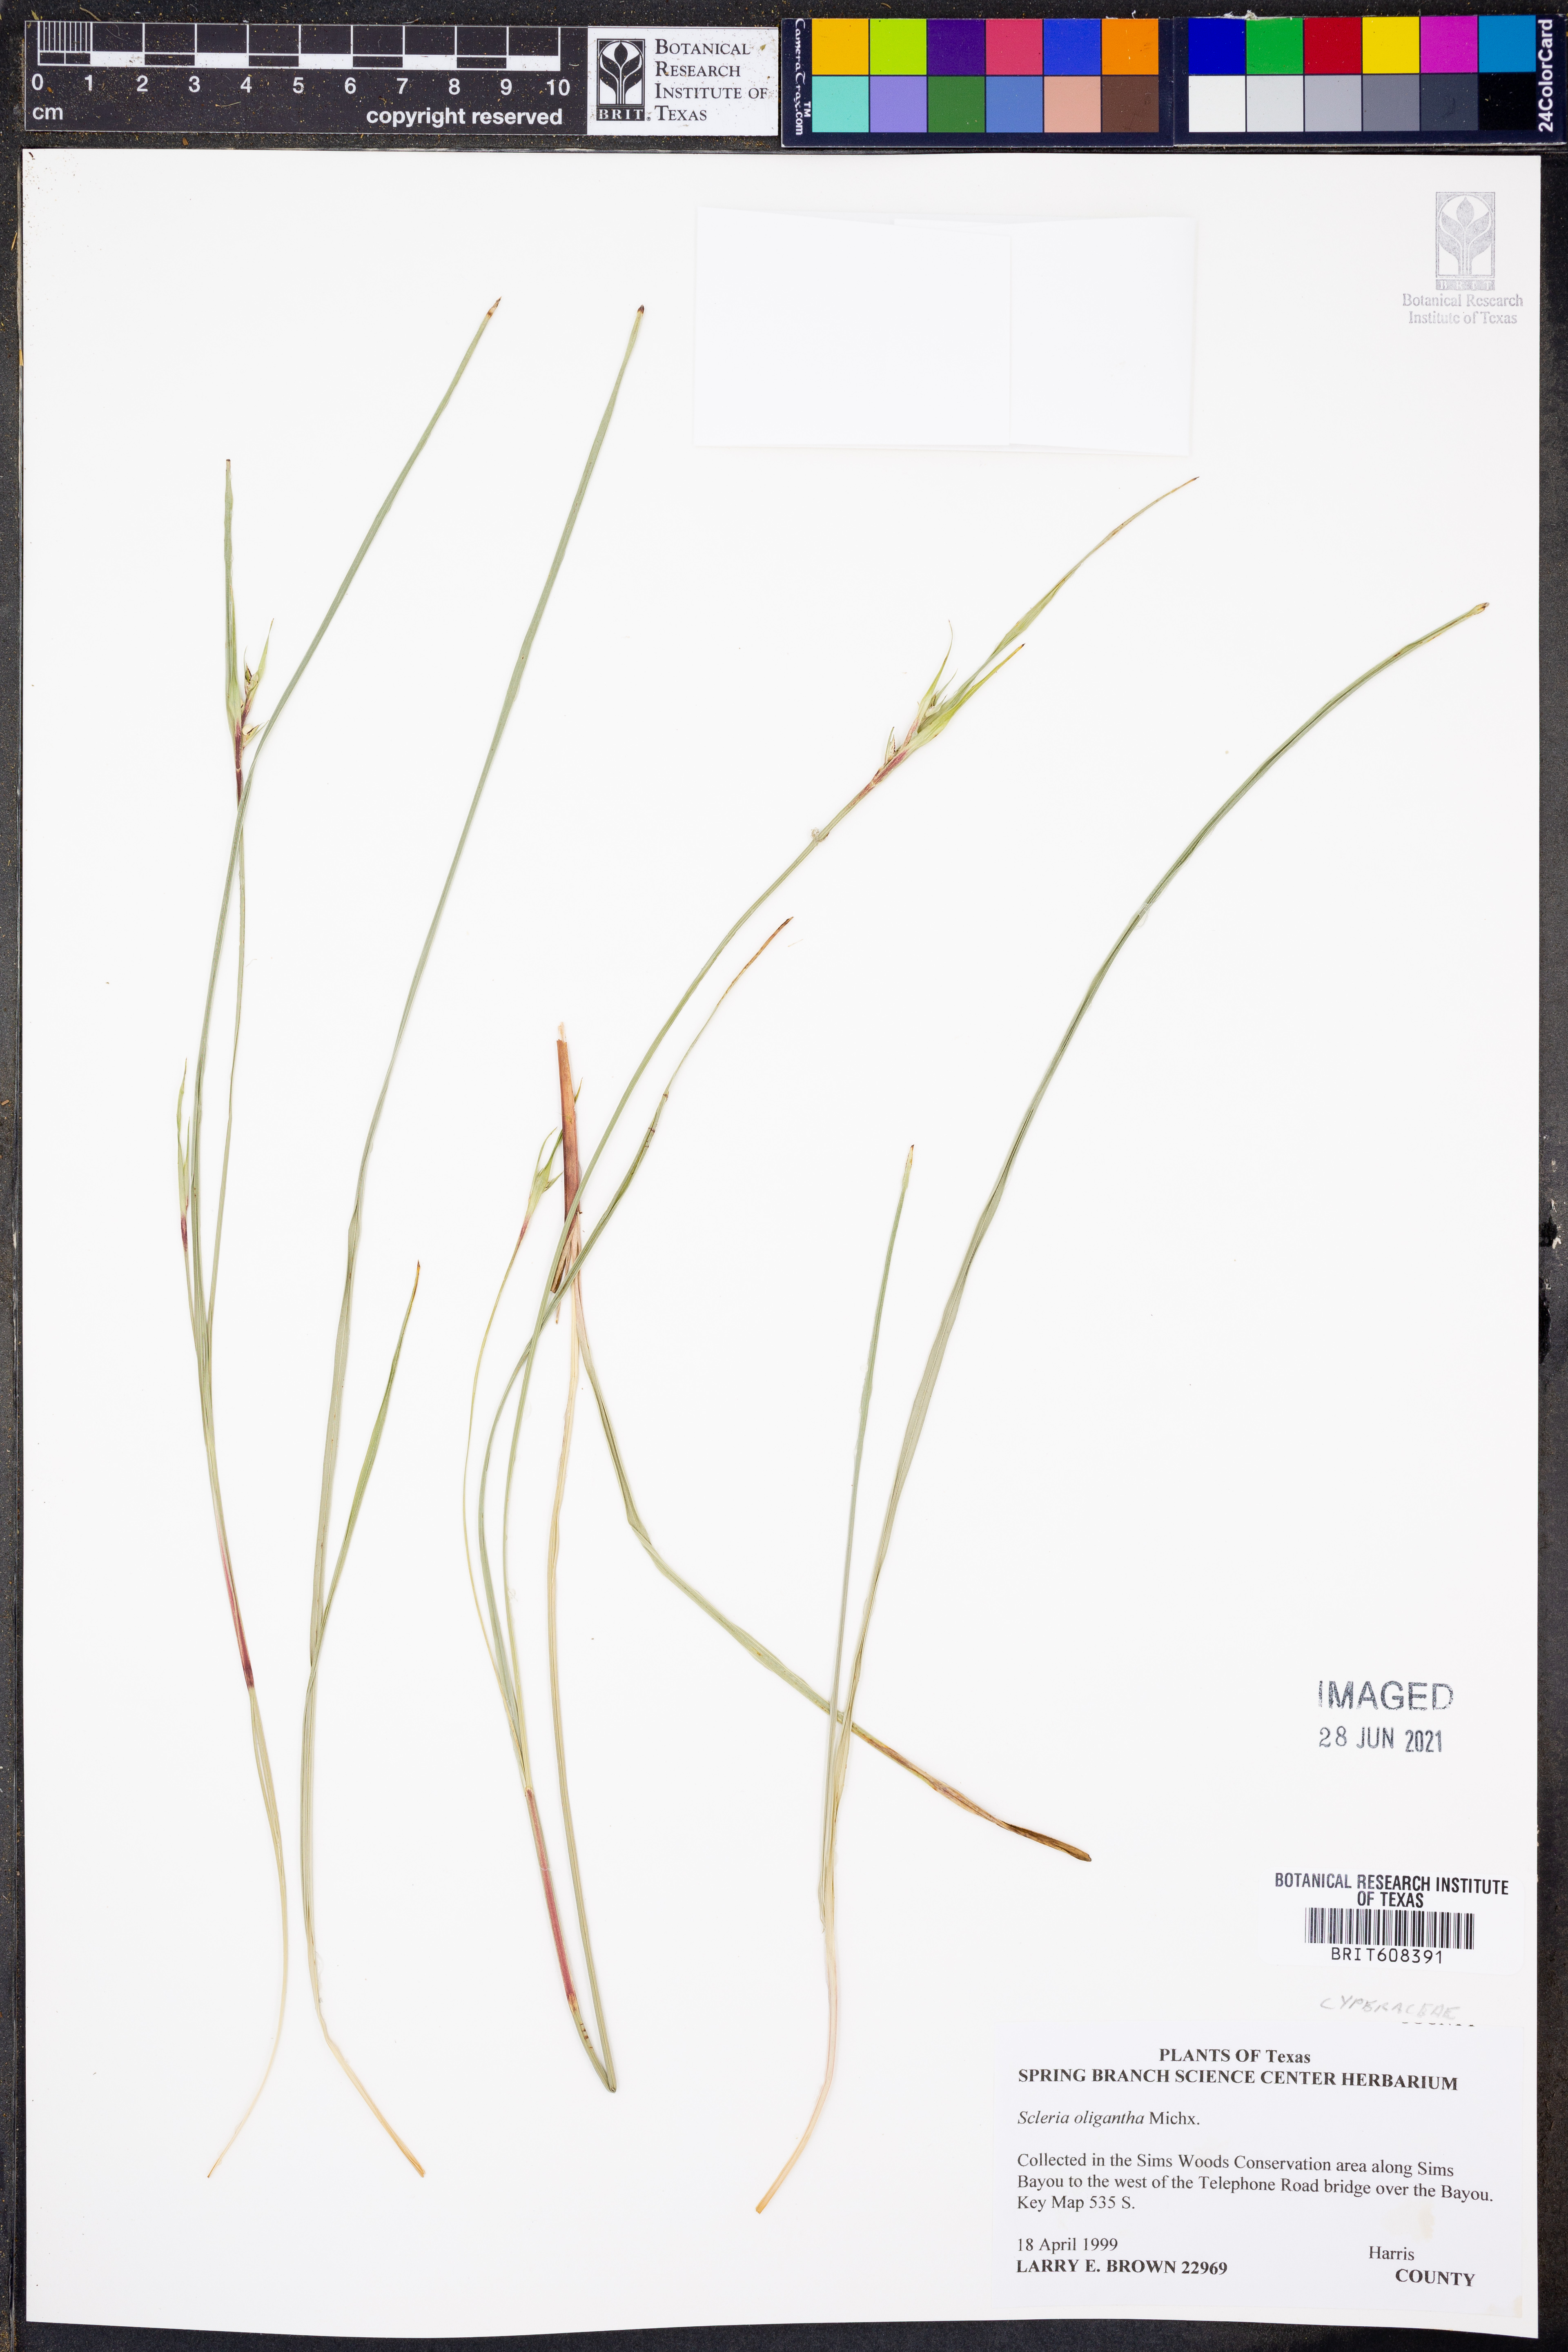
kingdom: Plantae
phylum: Tracheophyta
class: Liliopsida
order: Poales
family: Cyperaceae
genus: Scleria
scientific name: Scleria oligantha
